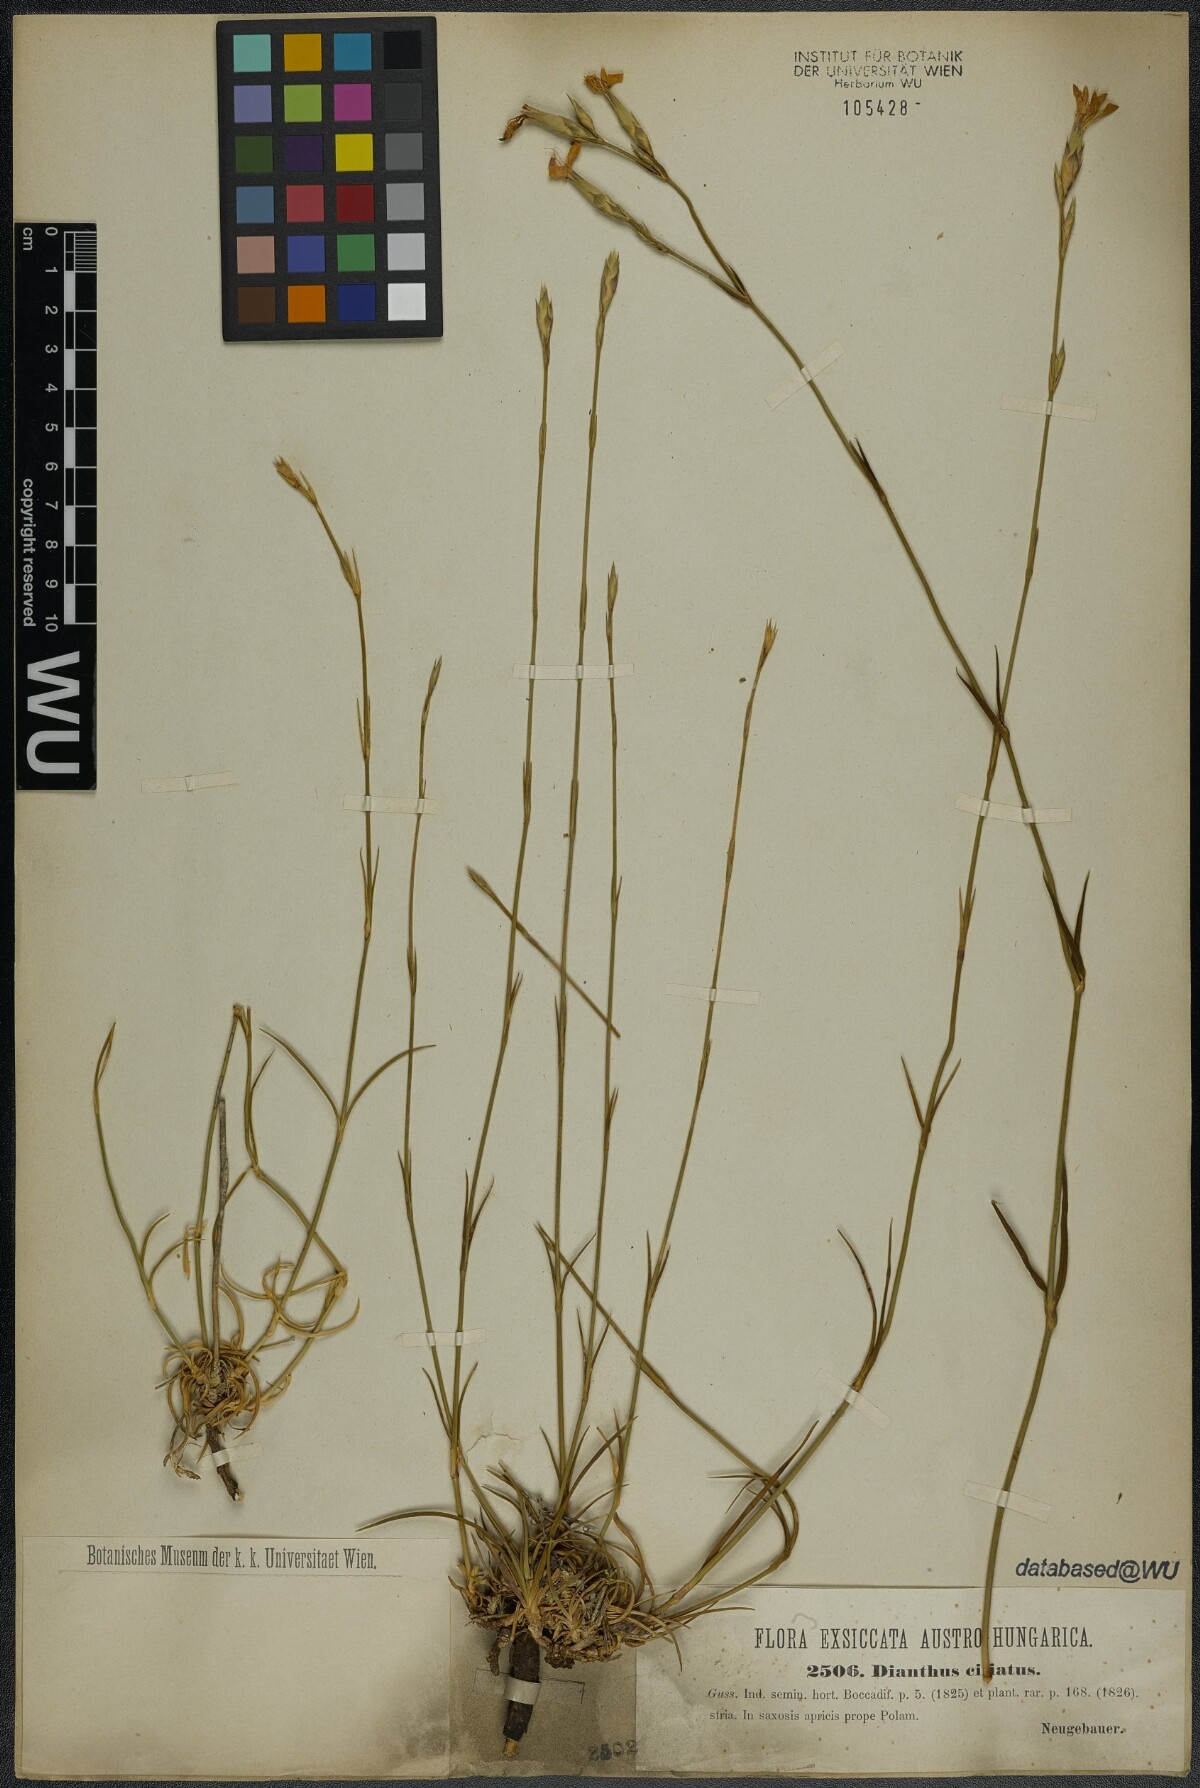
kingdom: Plantae
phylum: Tracheophyta
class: Magnoliopsida
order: Caryophyllales
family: Caryophyllaceae
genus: Dianthus
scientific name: Dianthus ciliatus
